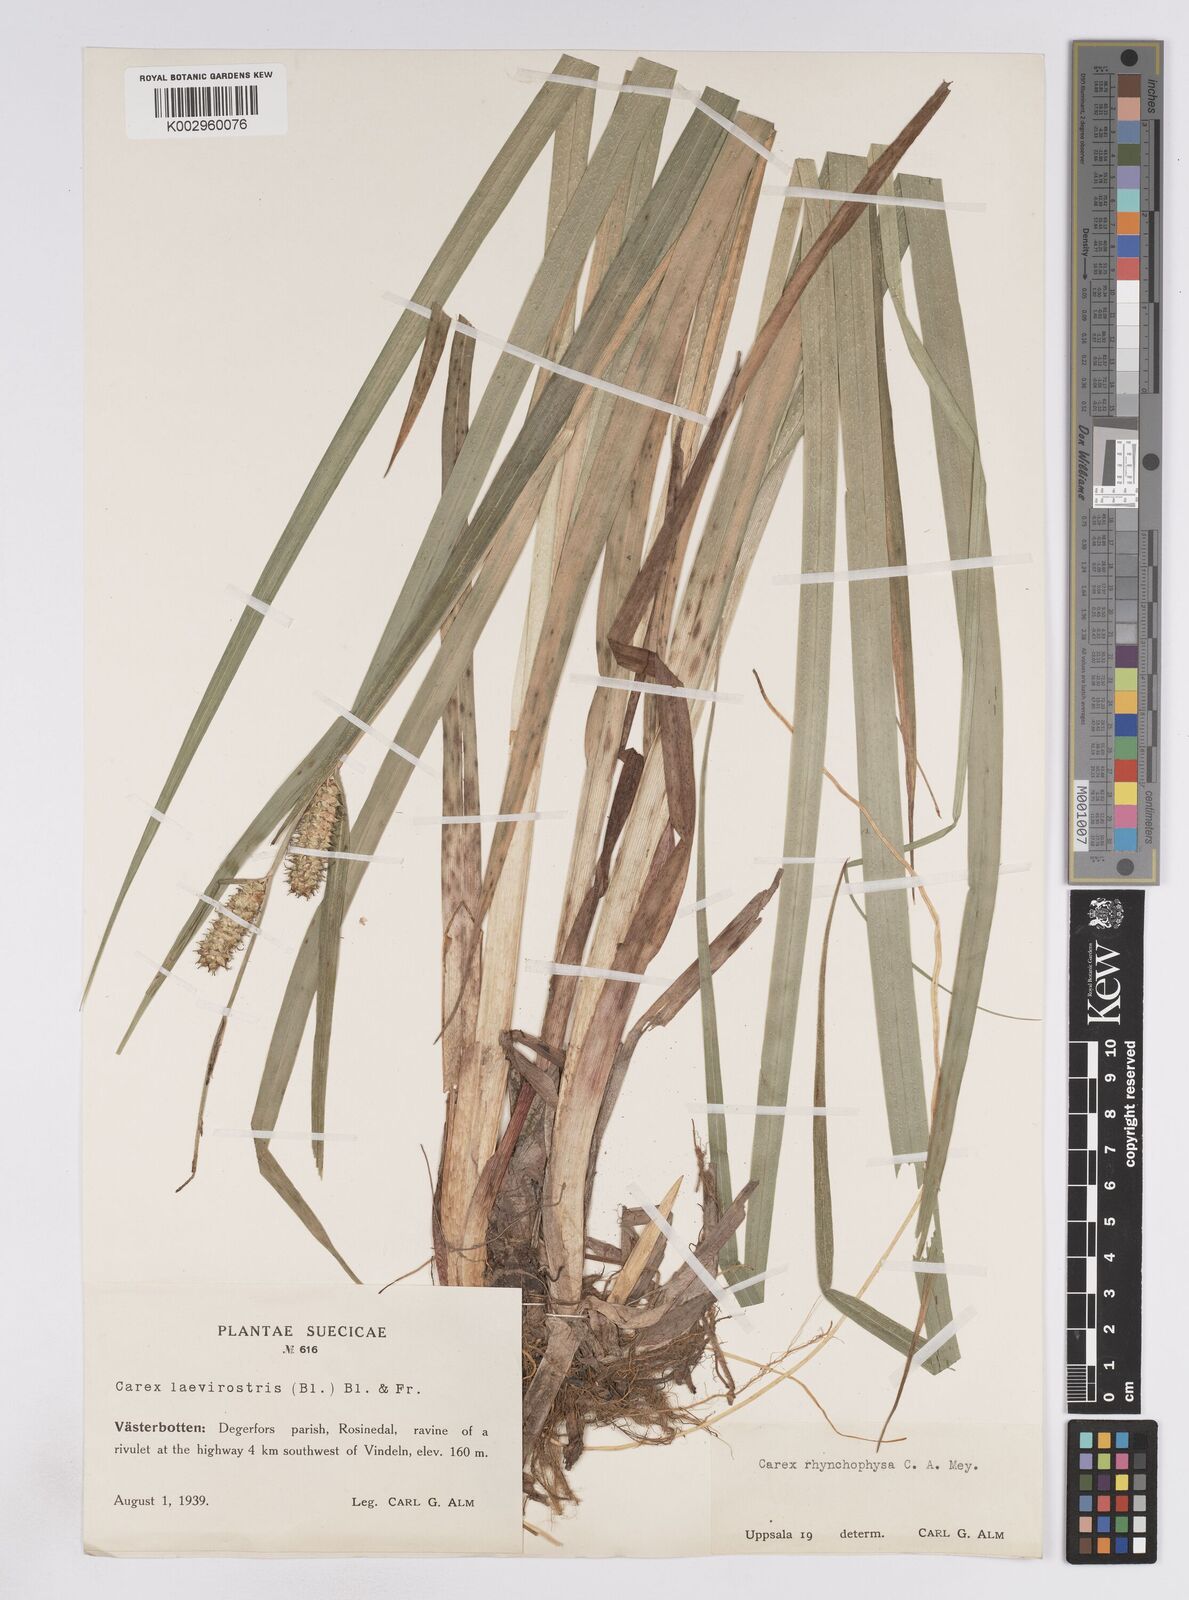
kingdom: Plantae
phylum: Tracheophyta
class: Liliopsida
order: Poales
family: Cyperaceae
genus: Carex
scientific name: Carex utriculata
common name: Beaked sedge
